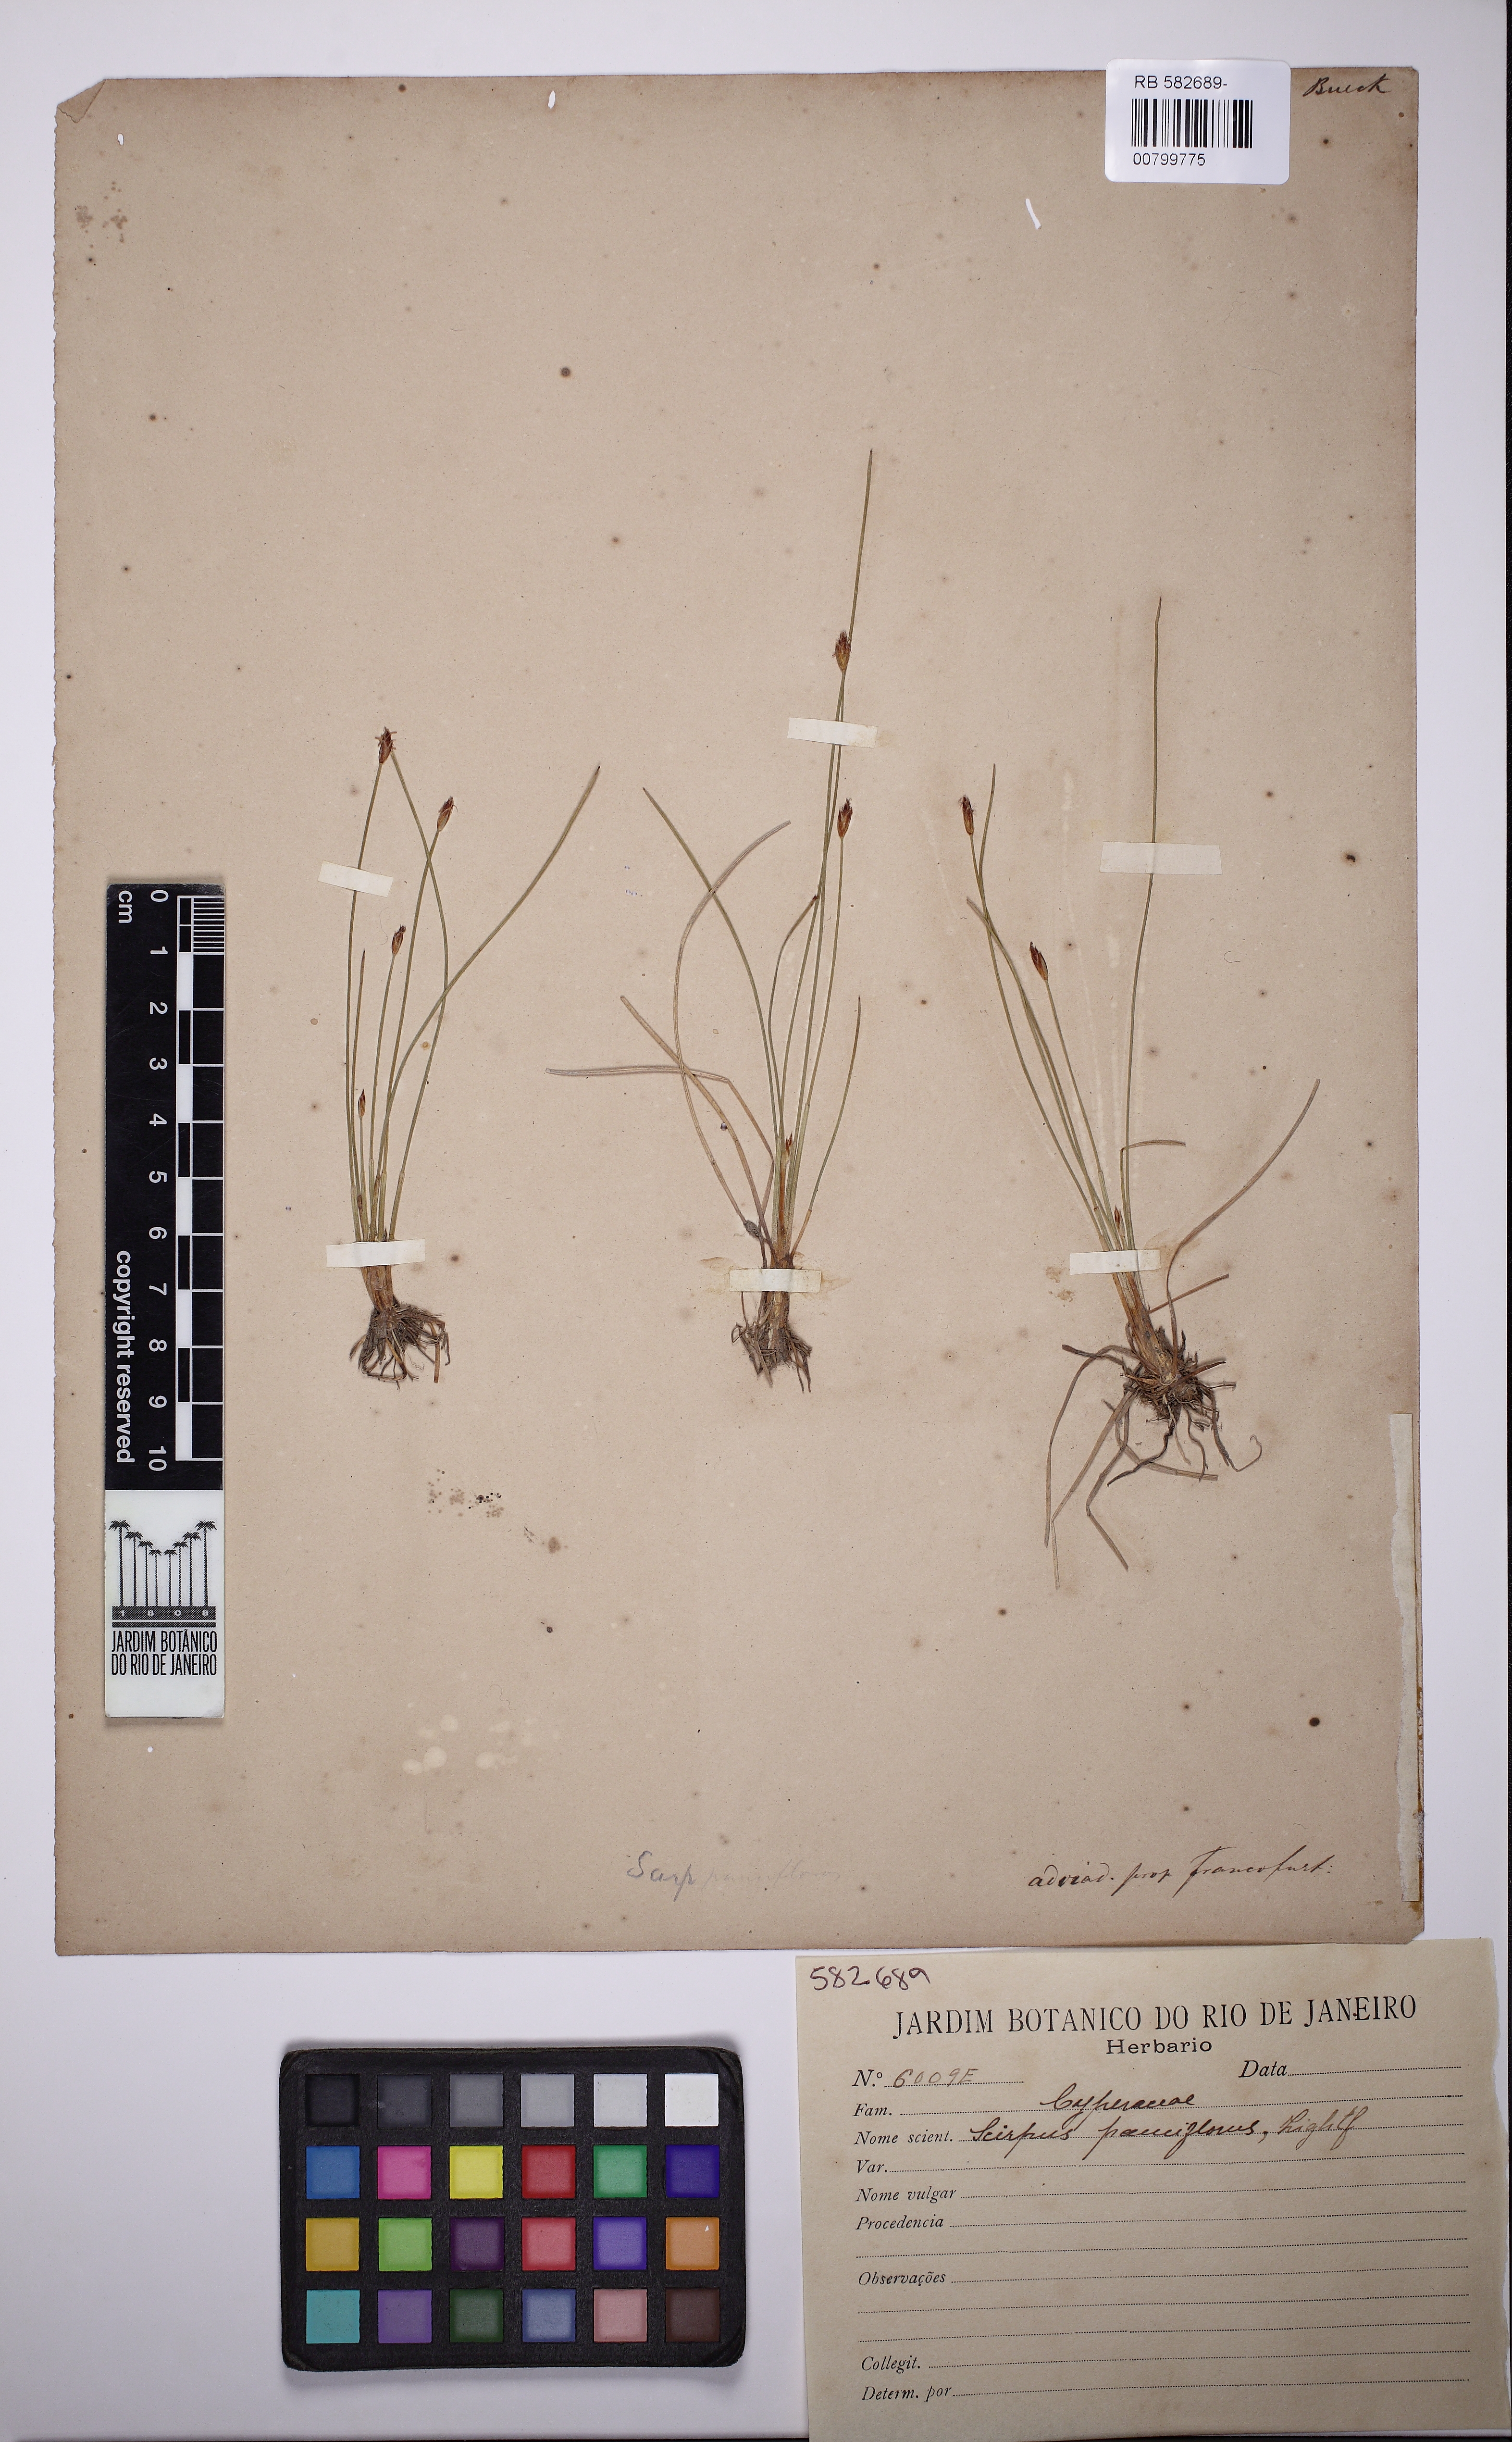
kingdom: Plantae
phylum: Tracheophyta
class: Liliopsida
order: Poales
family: Cyperaceae
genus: Eleocharis
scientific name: Eleocharis quinqueflora
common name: Few-flowered spike-rush
